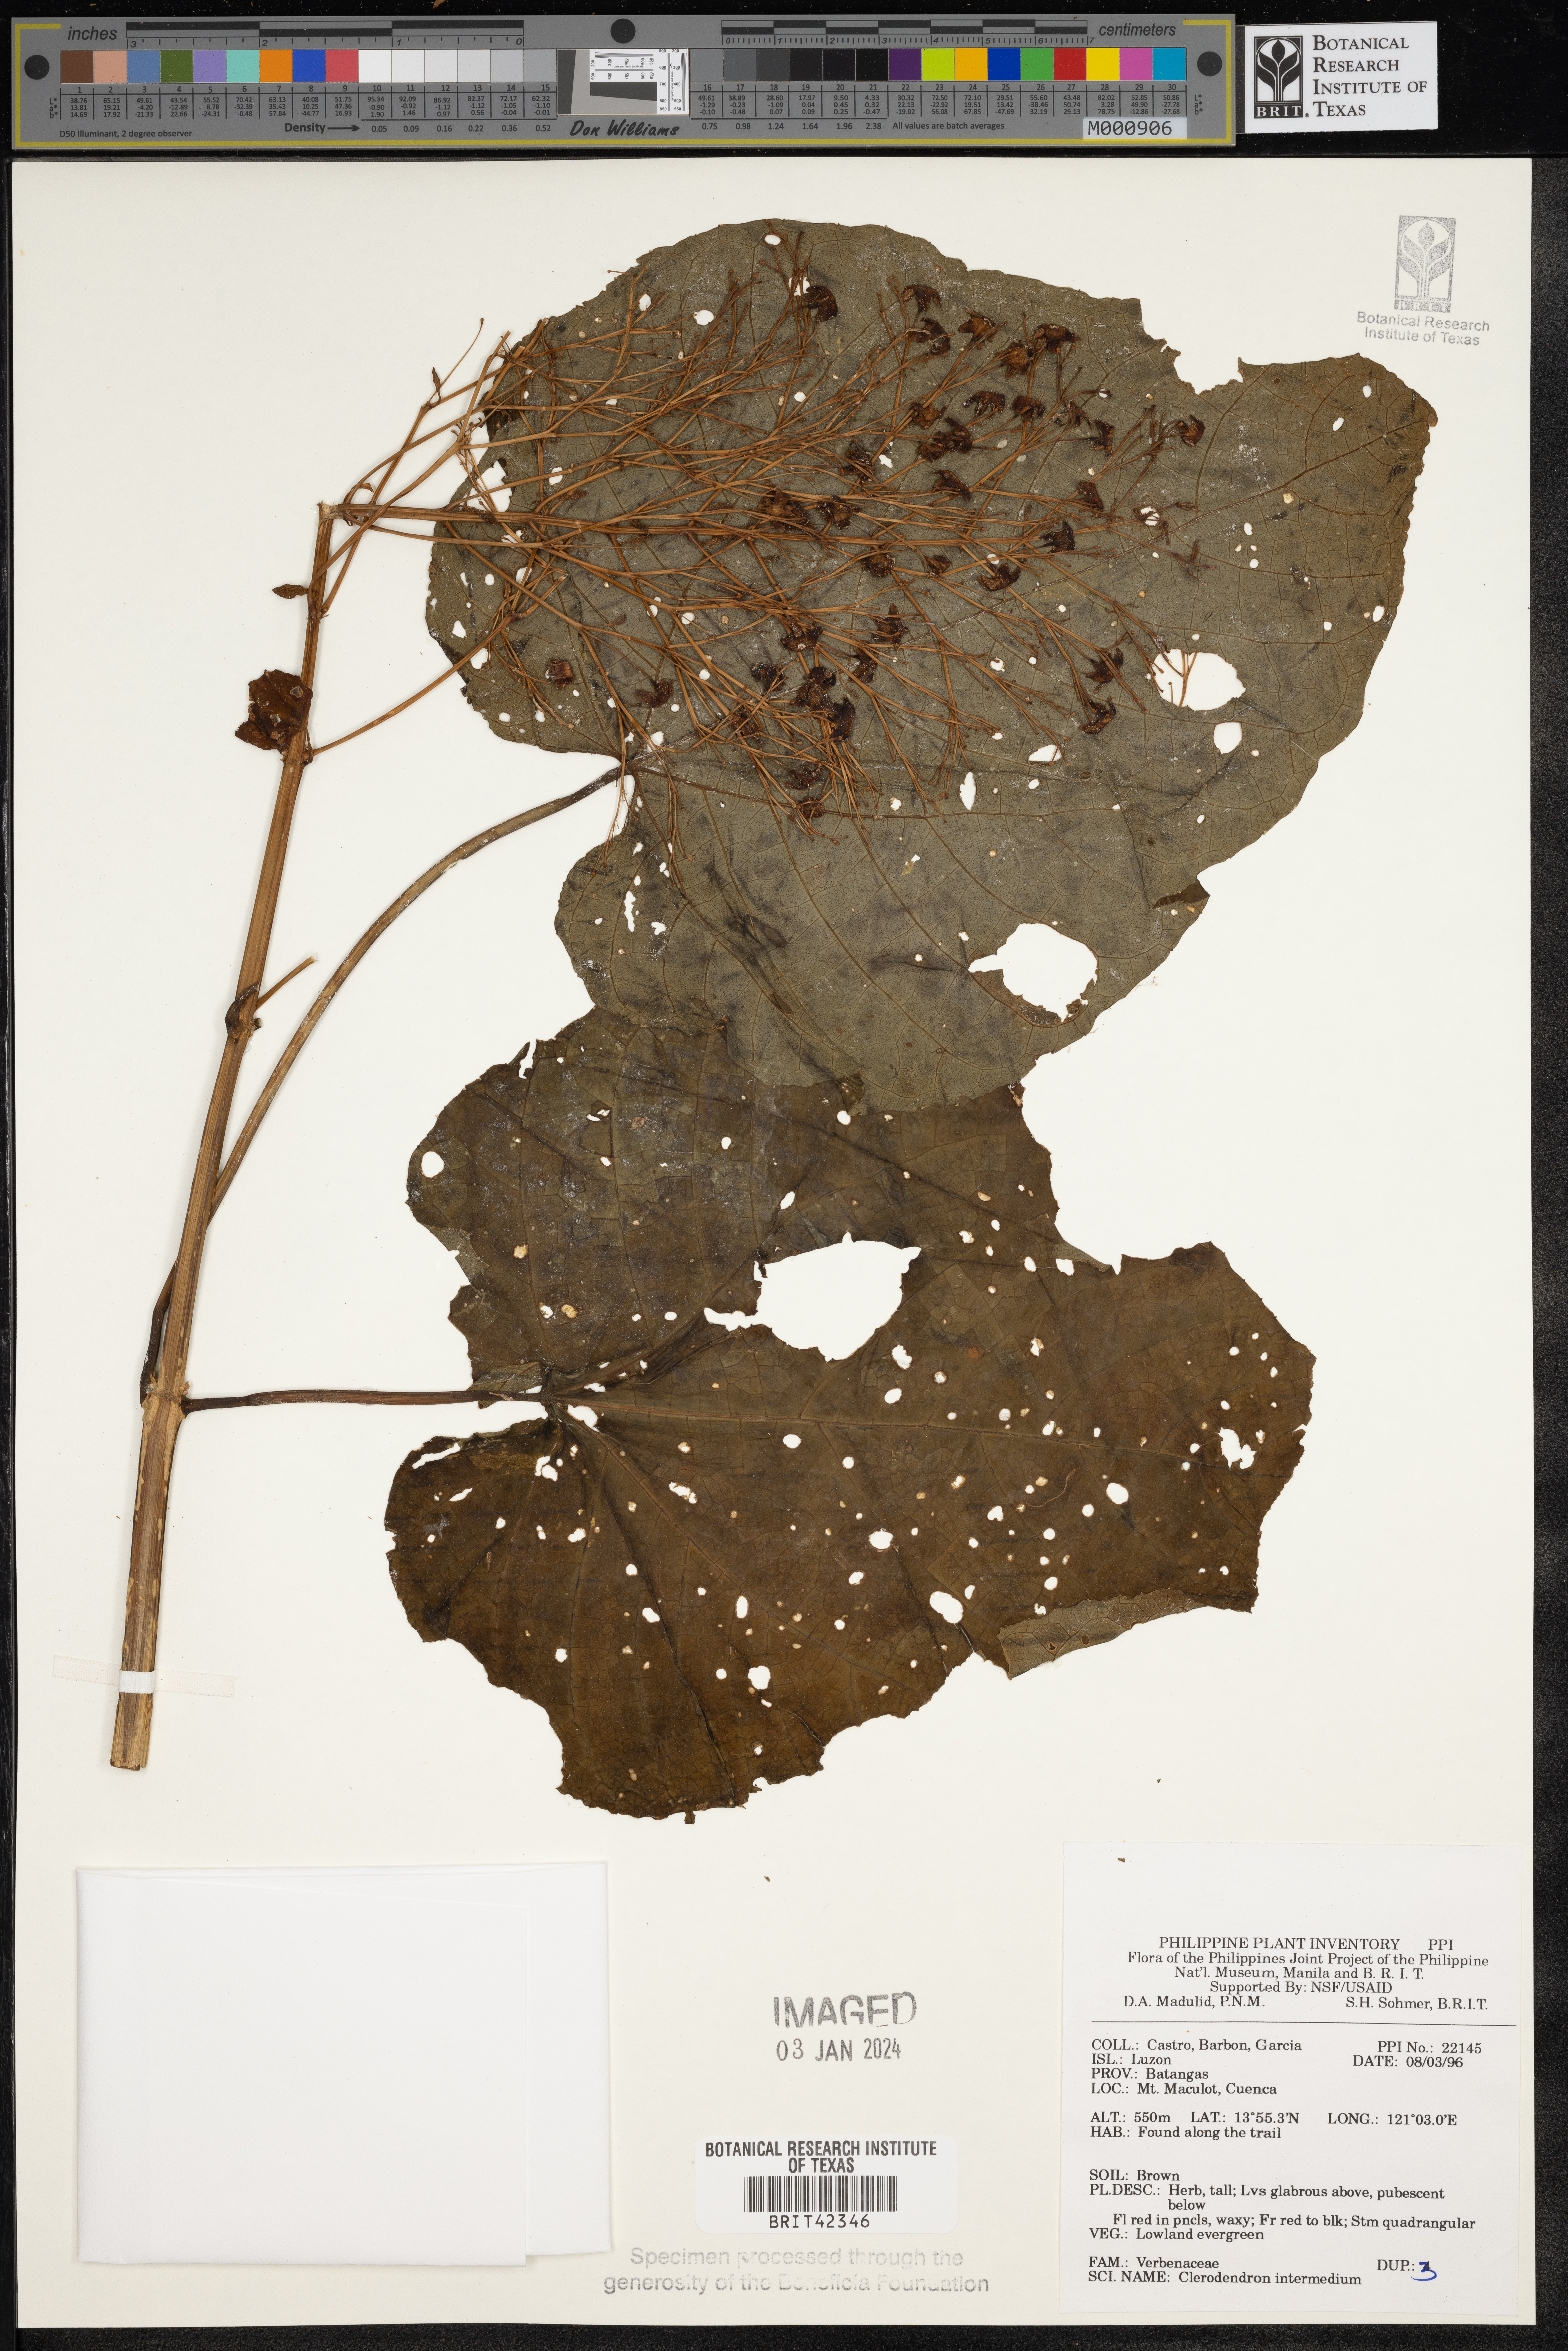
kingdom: Plantae
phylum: Tracheophyta
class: Magnoliopsida
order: Lamiales
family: Lamiaceae
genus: Clerodendrum
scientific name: Clerodendrum intermedium
